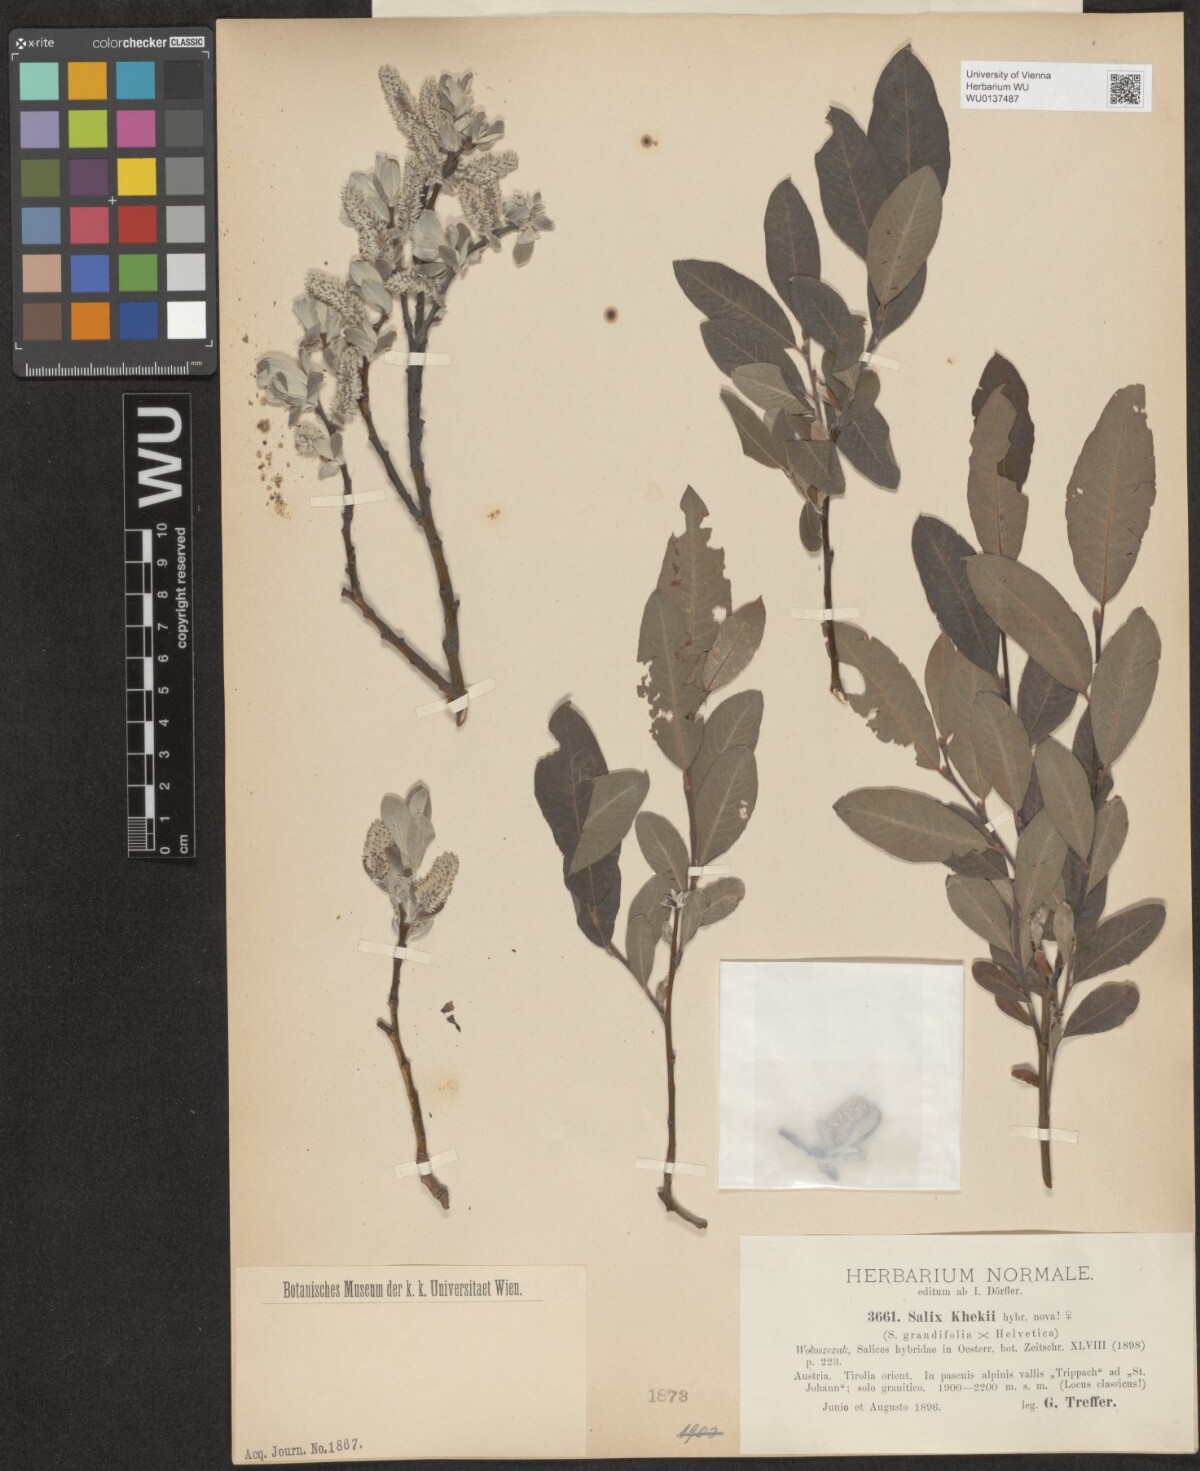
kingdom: Plantae
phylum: Tracheophyta
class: Magnoliopsida
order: Malpighiales
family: Salicaceae
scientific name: Salicaceae
